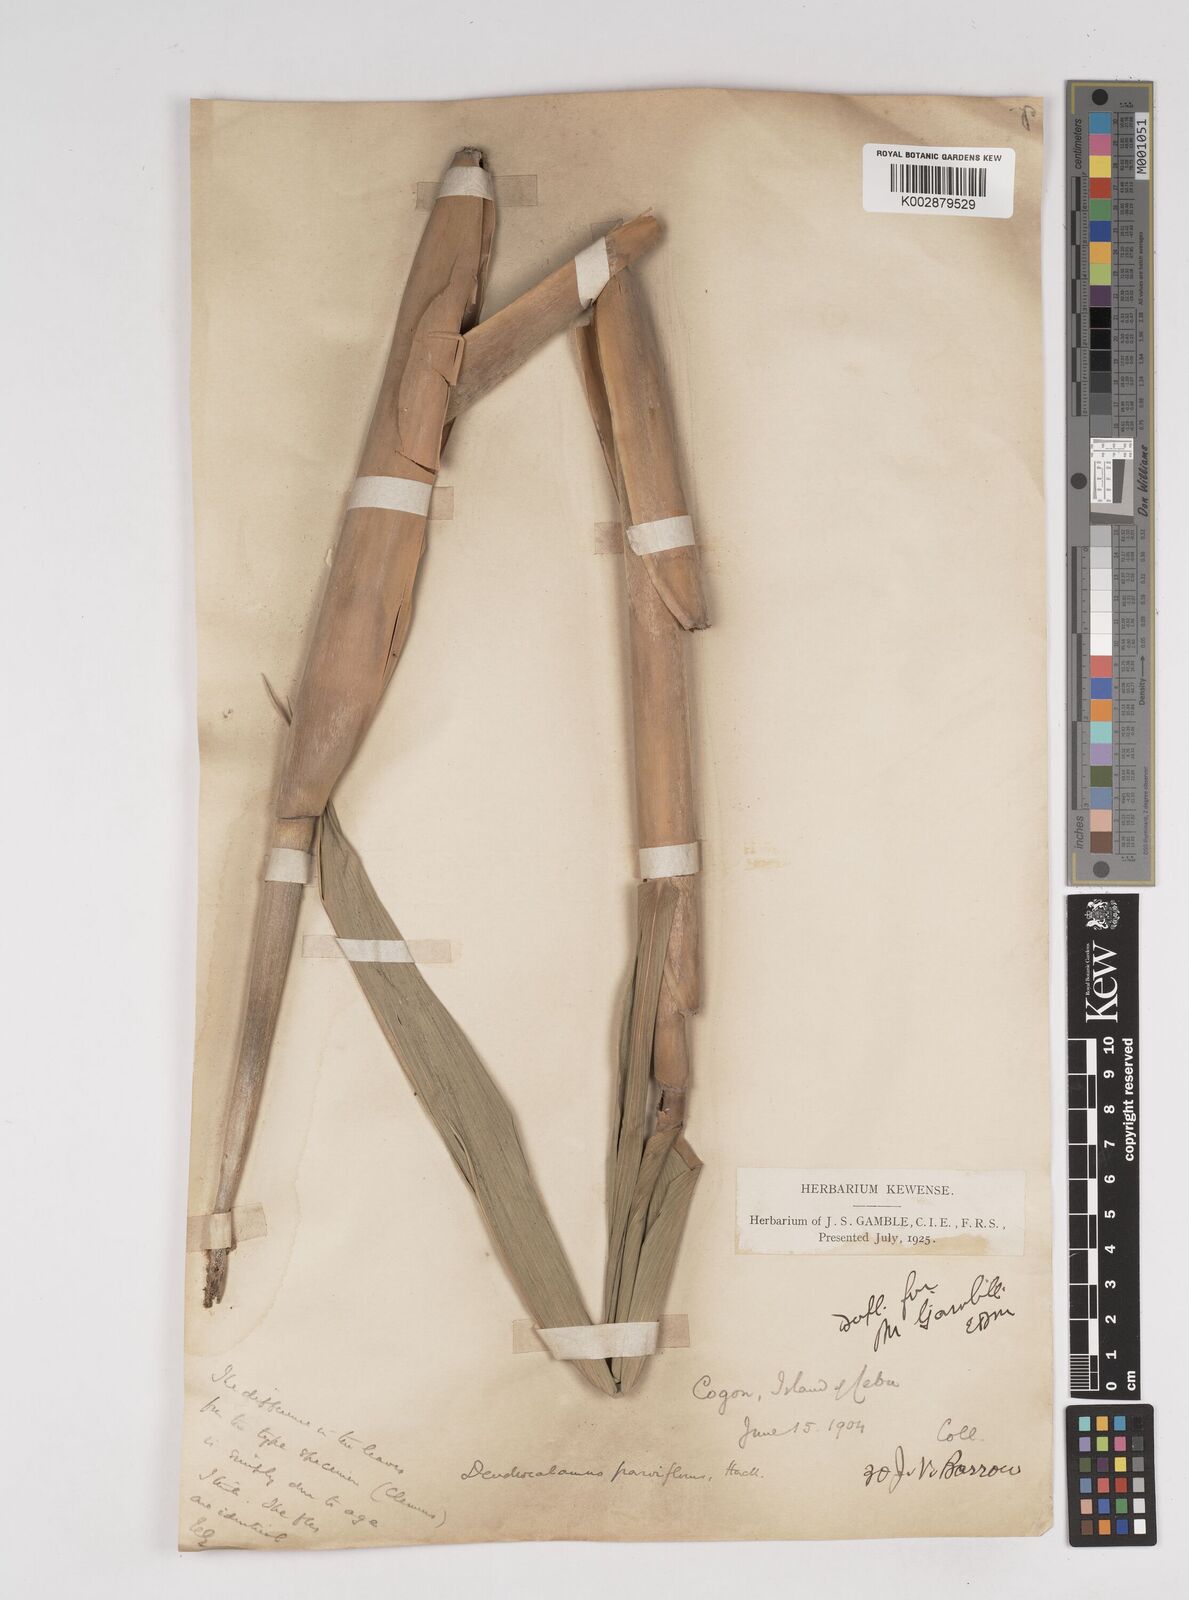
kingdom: Plantae
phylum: Tracheophyta
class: Liliopsida
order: Poales
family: Poaceae
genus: Dendrocalamus
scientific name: Dendrocalamus merrillianus
